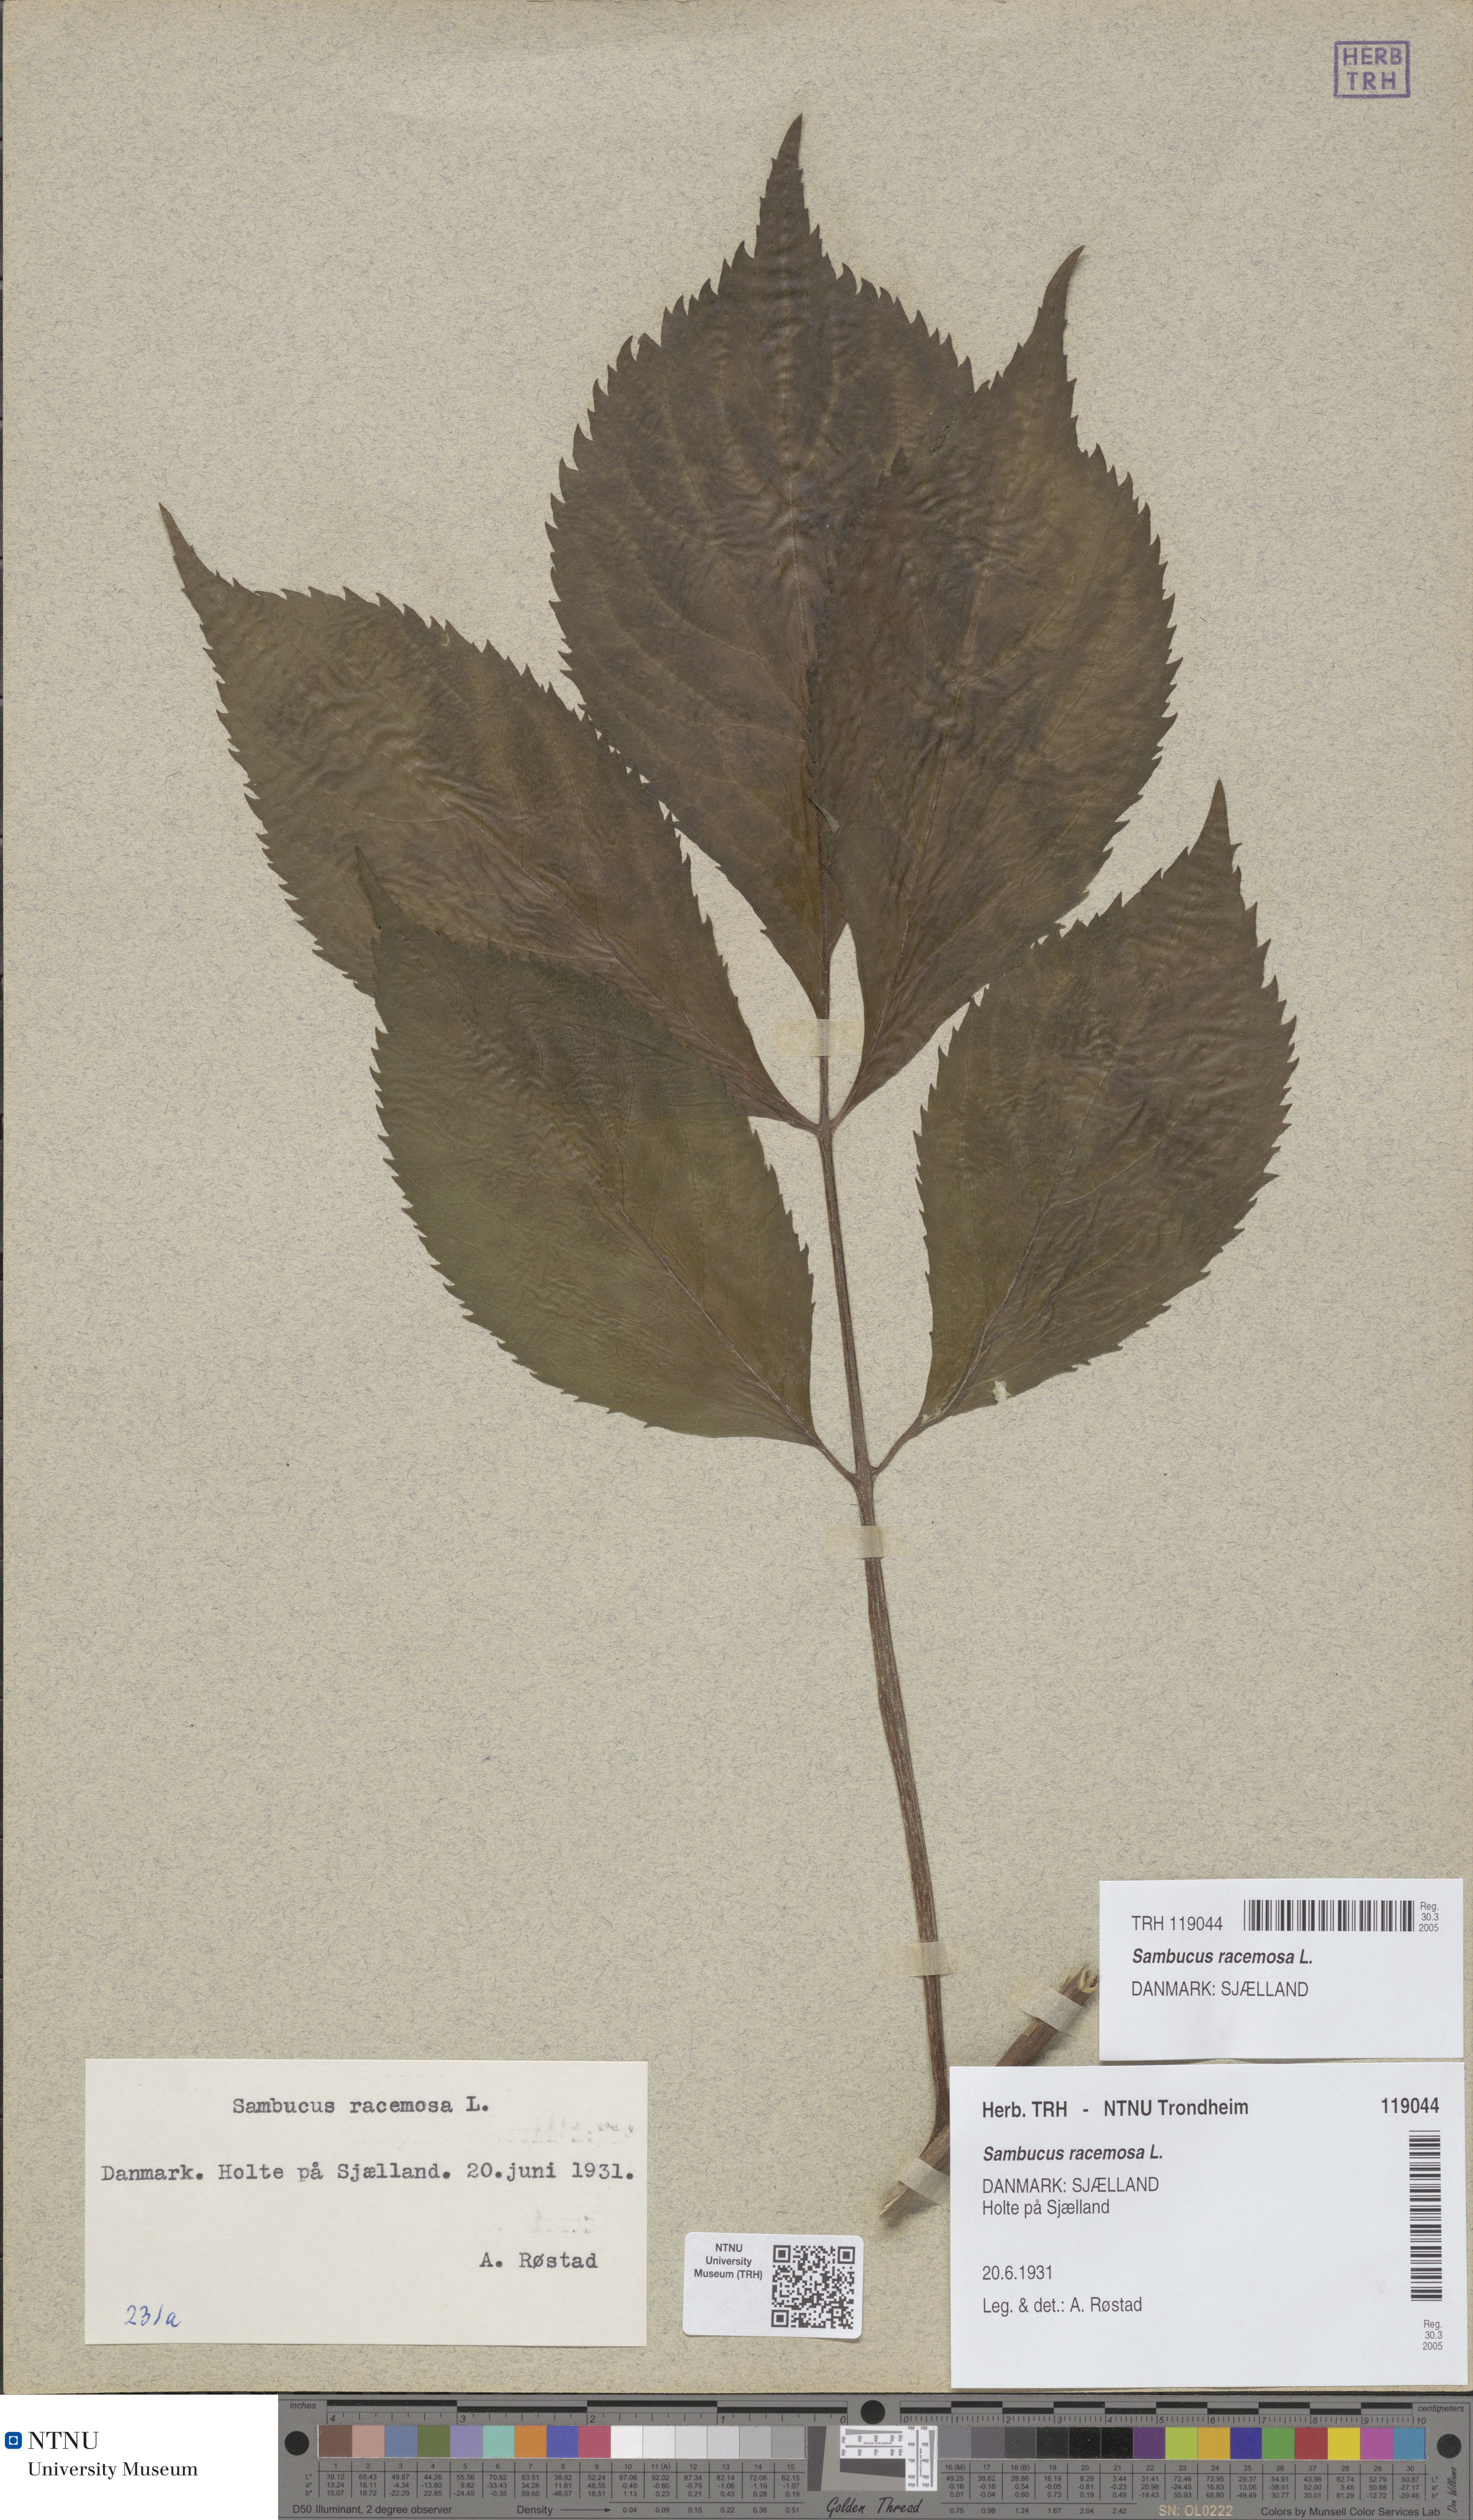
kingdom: Plantae
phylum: Tracheophyta
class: Magnoliopsida
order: Dipsacales
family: Viburnaceae
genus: Sambucus
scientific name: Sambucus racemosa
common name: Red-berried elder
